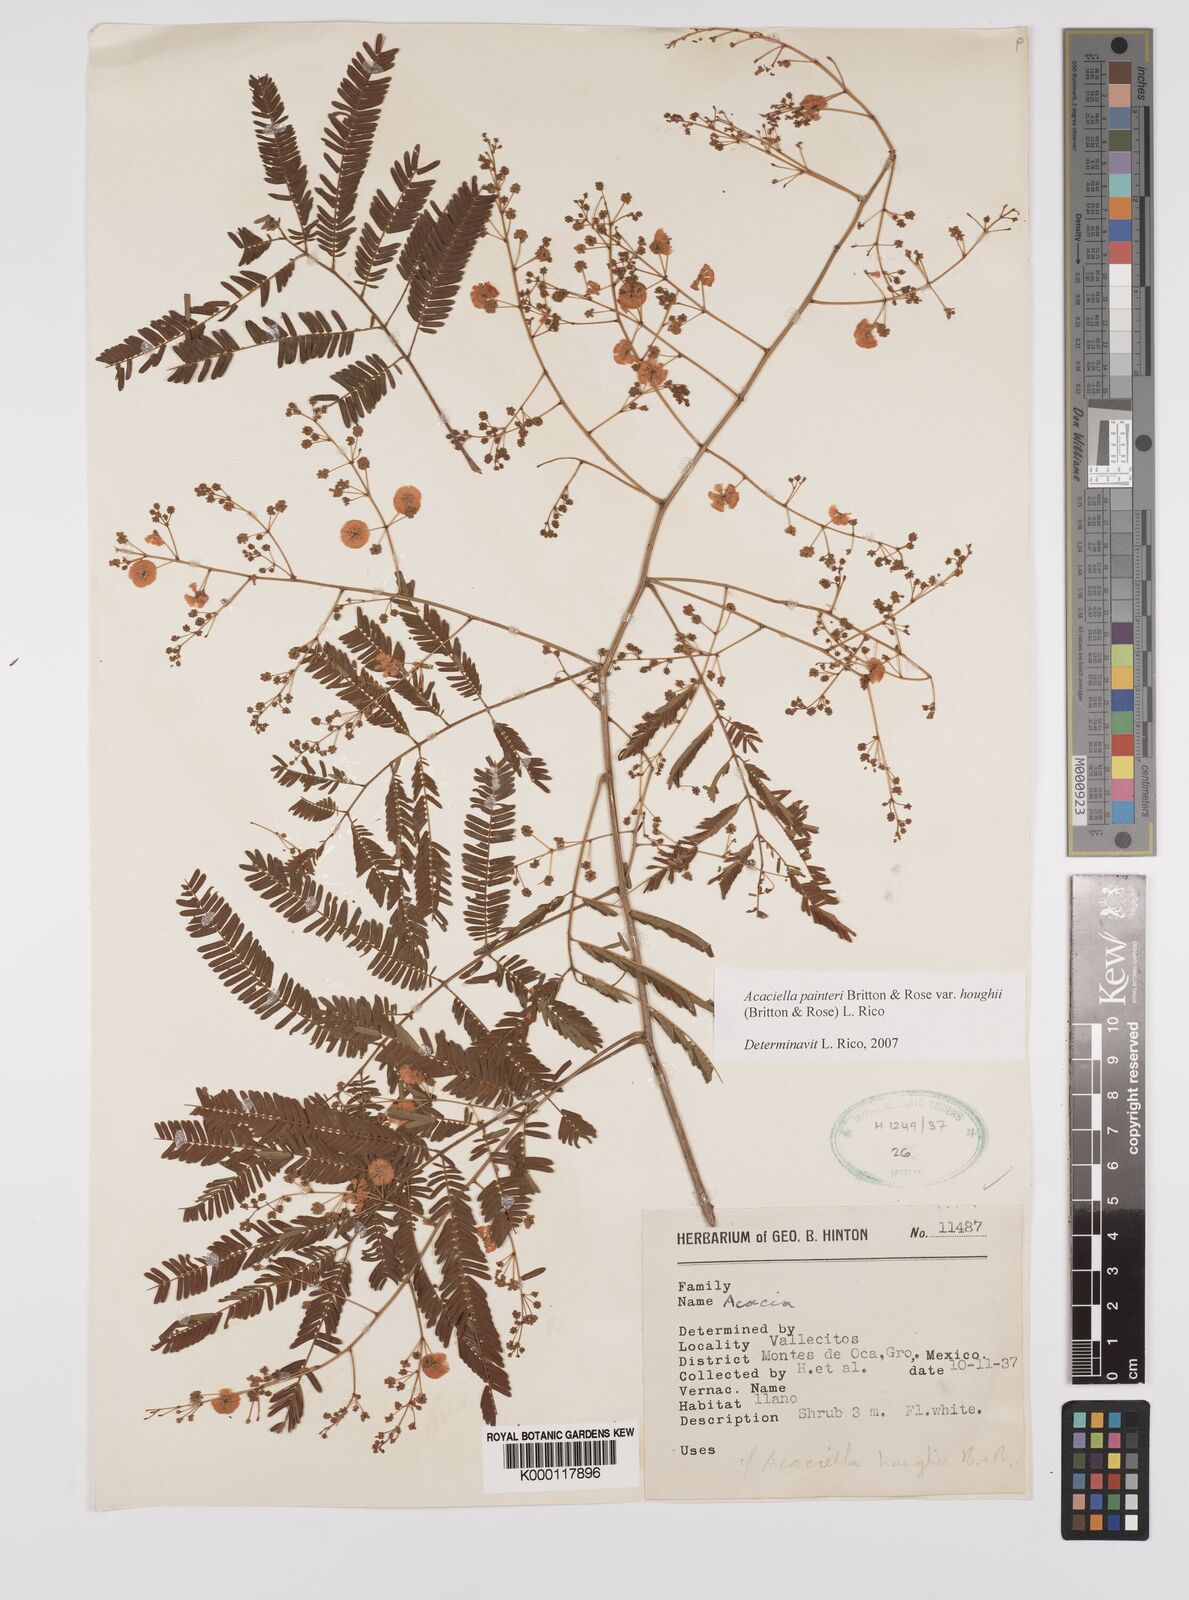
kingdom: Plantae
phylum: Tracheophyta
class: Magnoliopsida
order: Fabales
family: Fabaceae
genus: Acaciella
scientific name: Acaciella painteri
